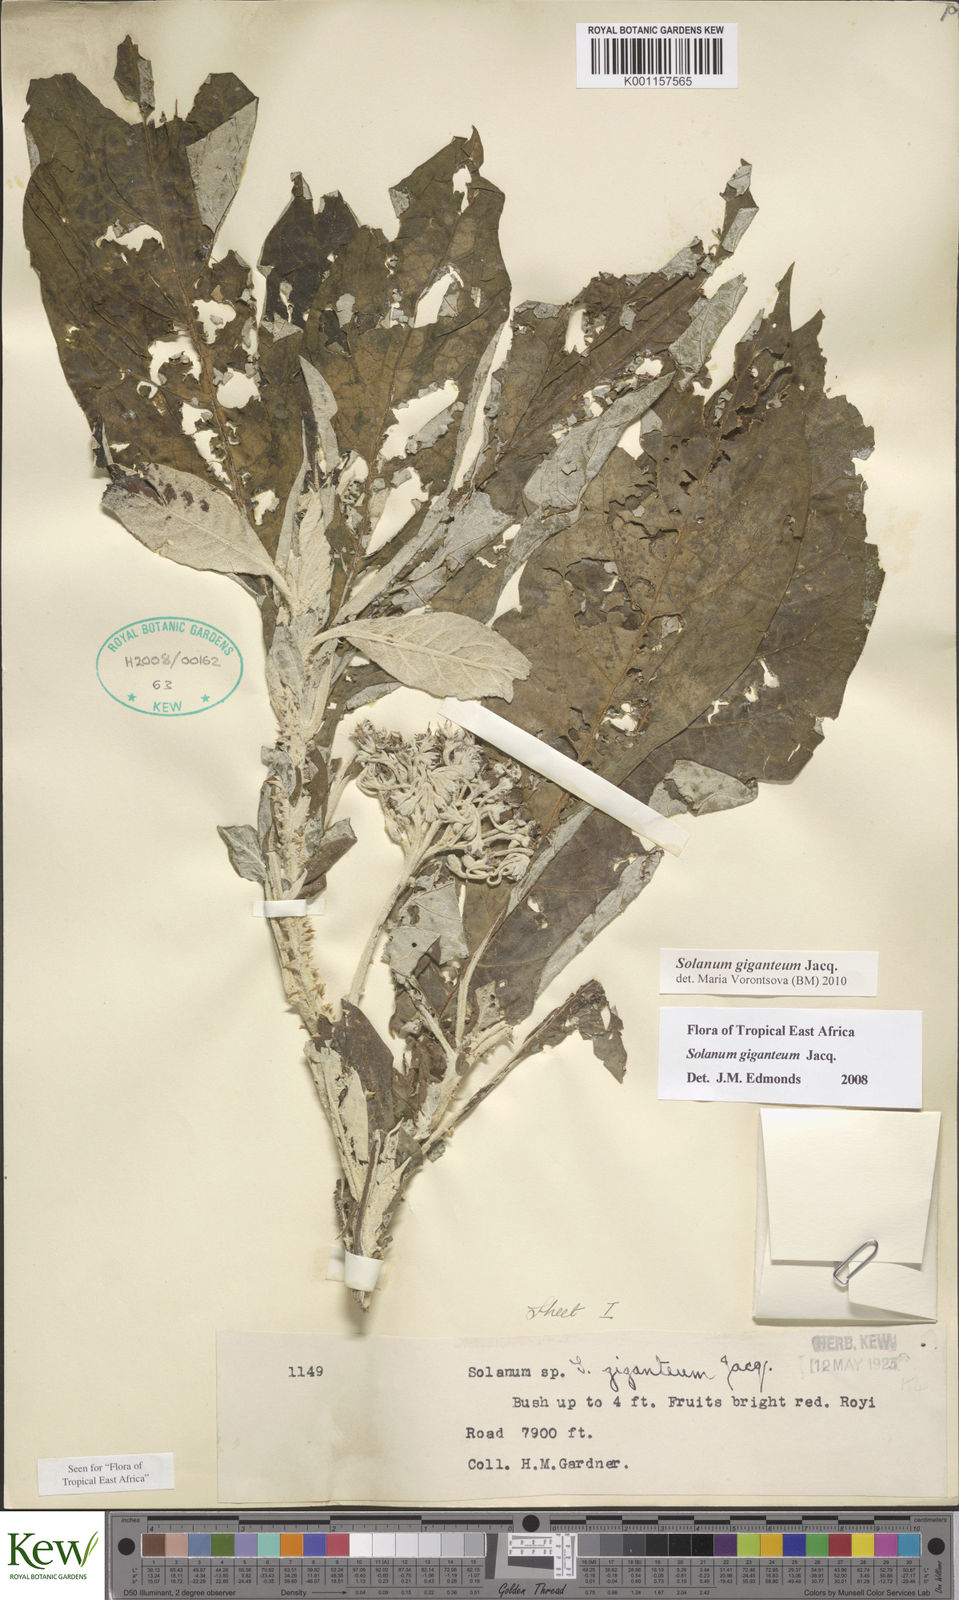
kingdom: Plantae
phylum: Tracheophyta
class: Magnoliopsida
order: Solanales
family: Solanaceae
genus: Solanum
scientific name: Solanum giganteum
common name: Healing-leaf-tree
